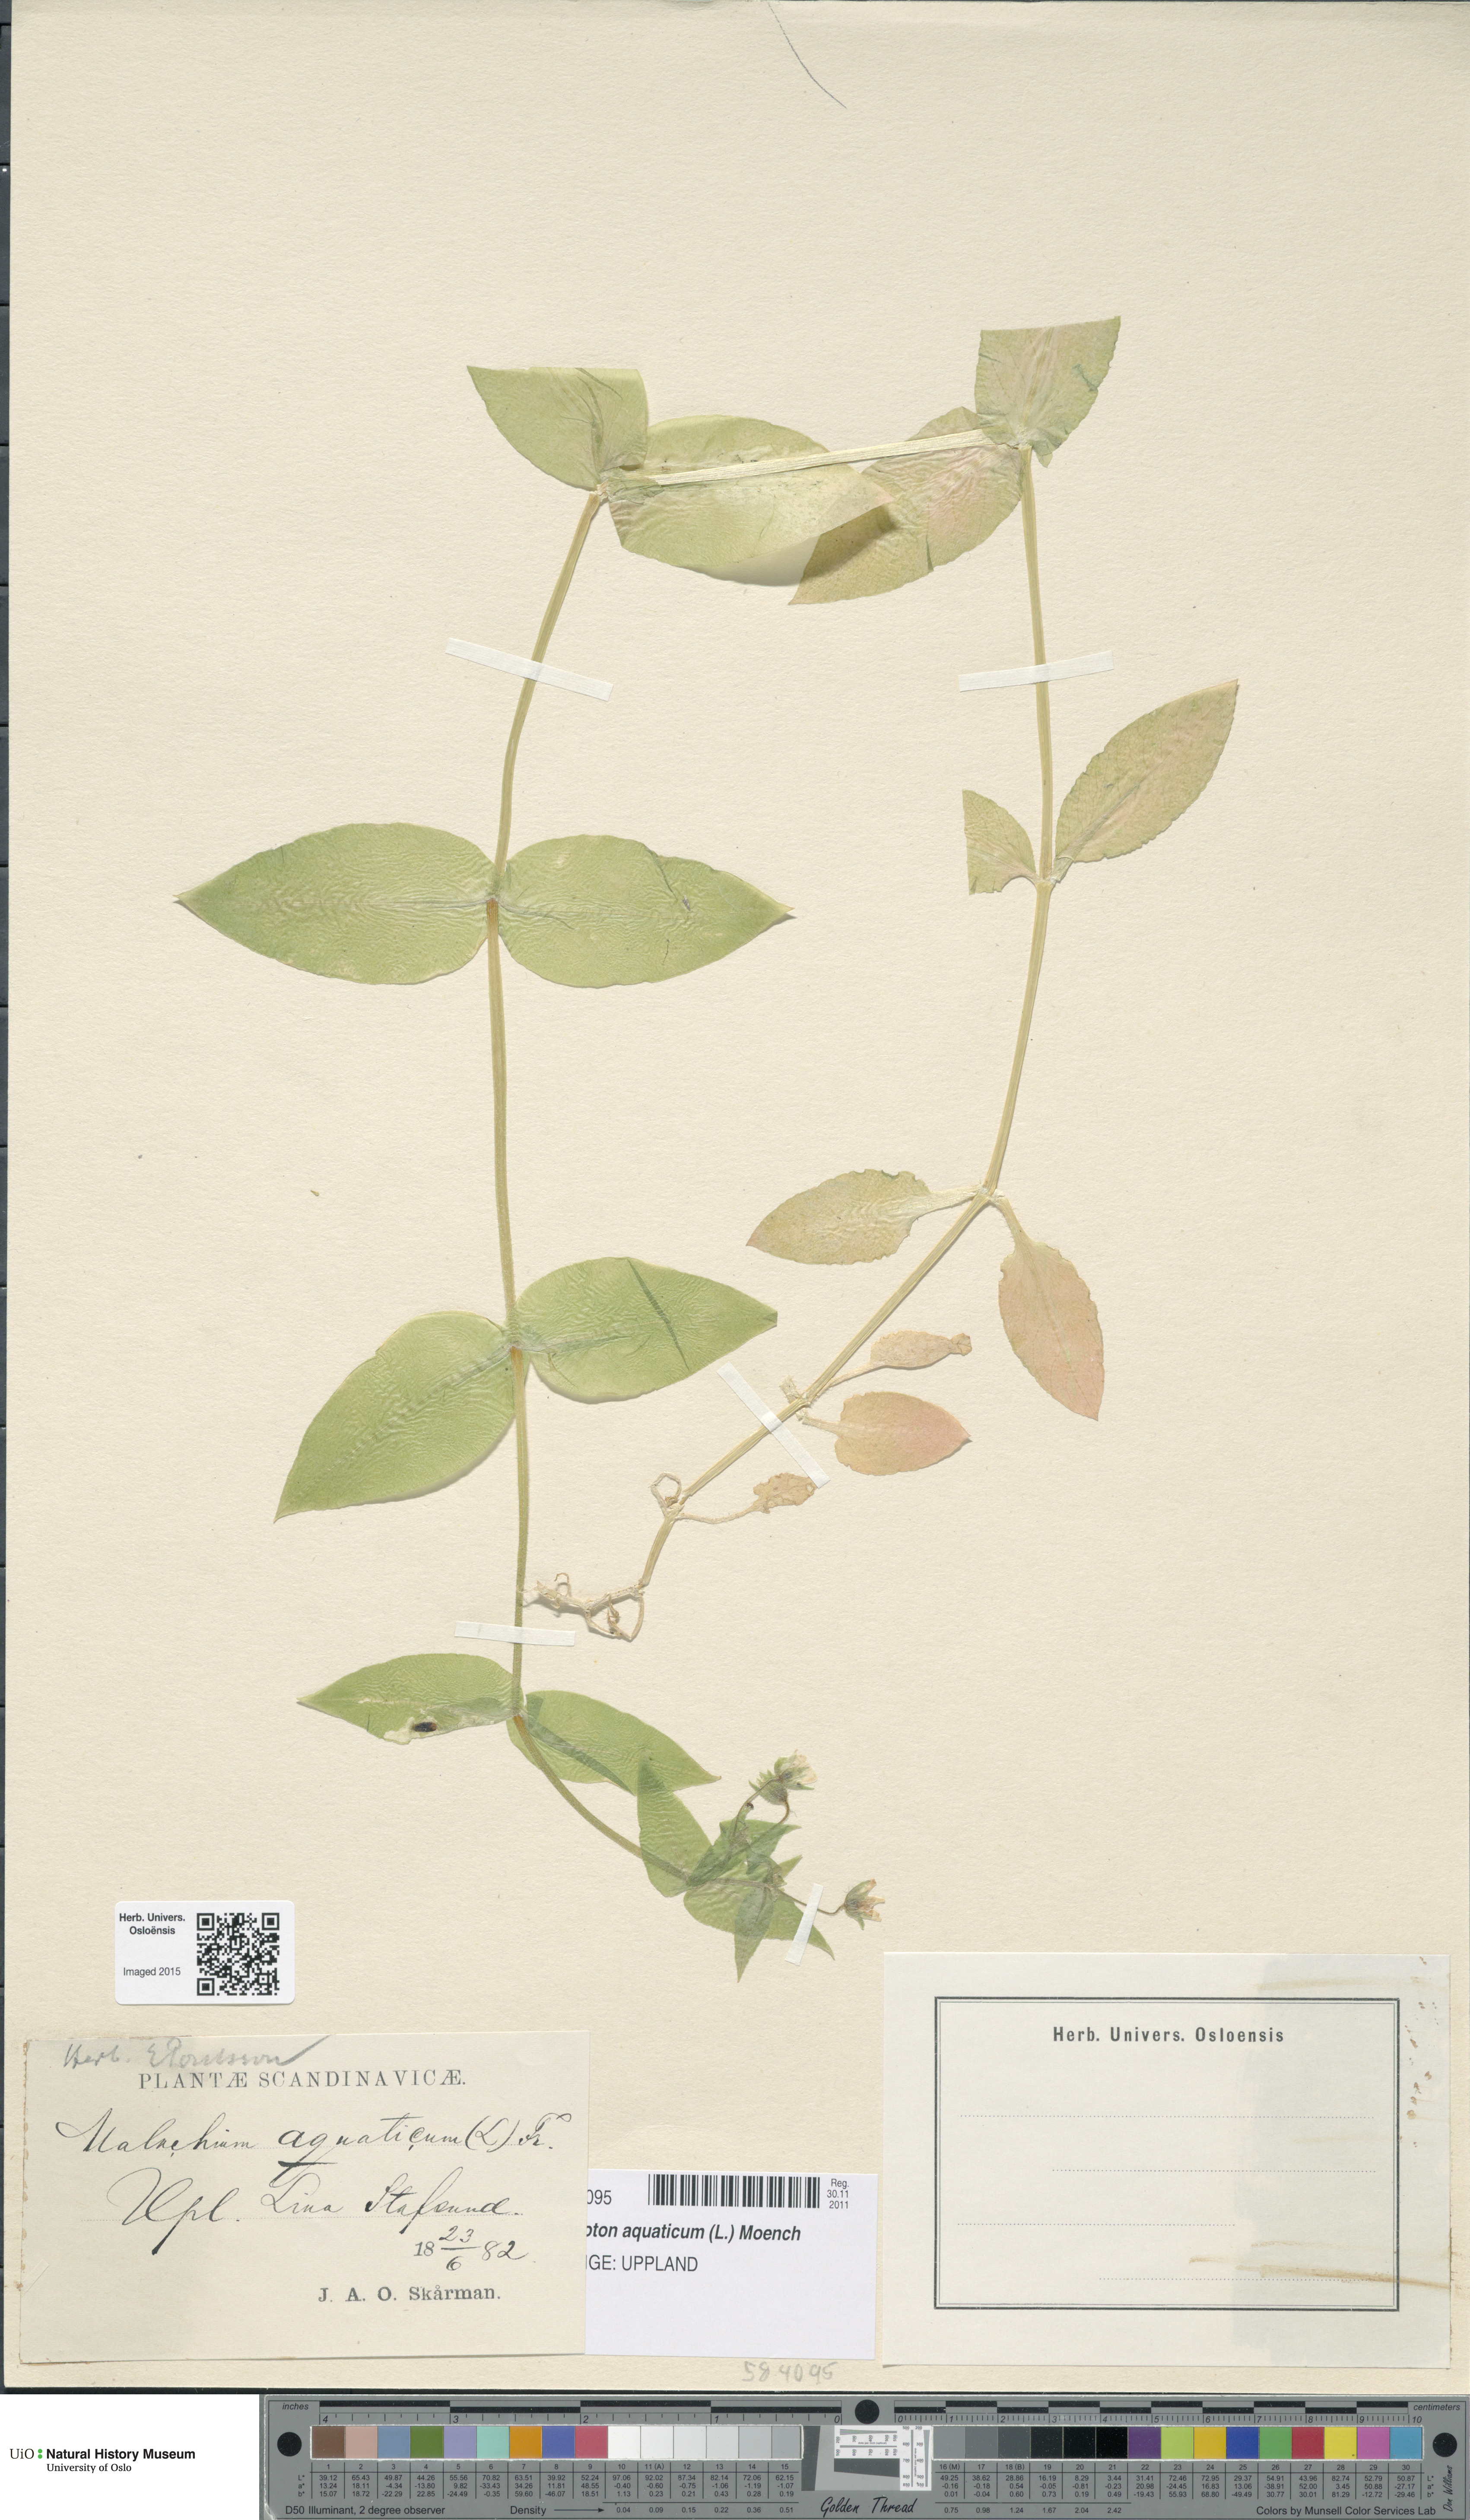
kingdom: Plantae
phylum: Tracheophyta
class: Magnoliopsida
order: Caryophyllales
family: Caryophyllaceae
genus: Stellaria
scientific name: Stellaria aquatica
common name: Water chickweed
